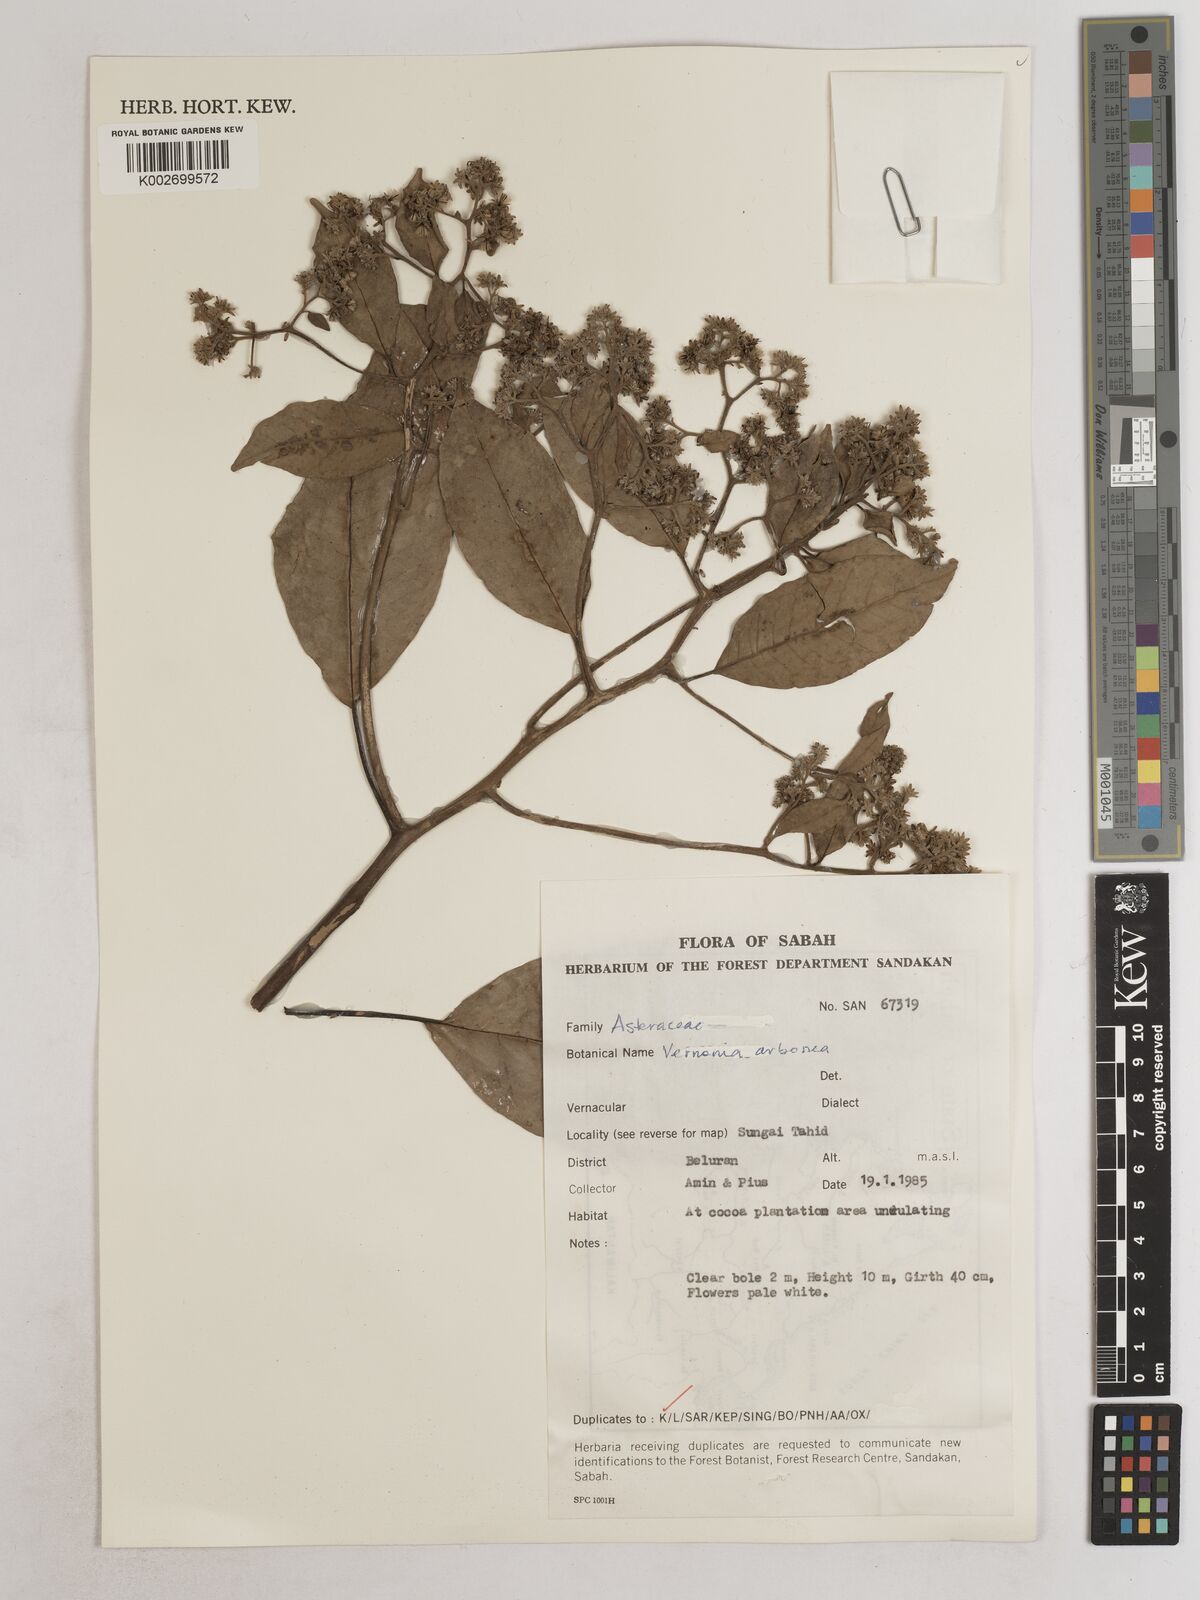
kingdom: Plantae
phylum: Tracheophyta
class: Magnoliopsida
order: Asterales
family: Asteraceae
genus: Strobocalyx
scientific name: Strobocalyx arborea
